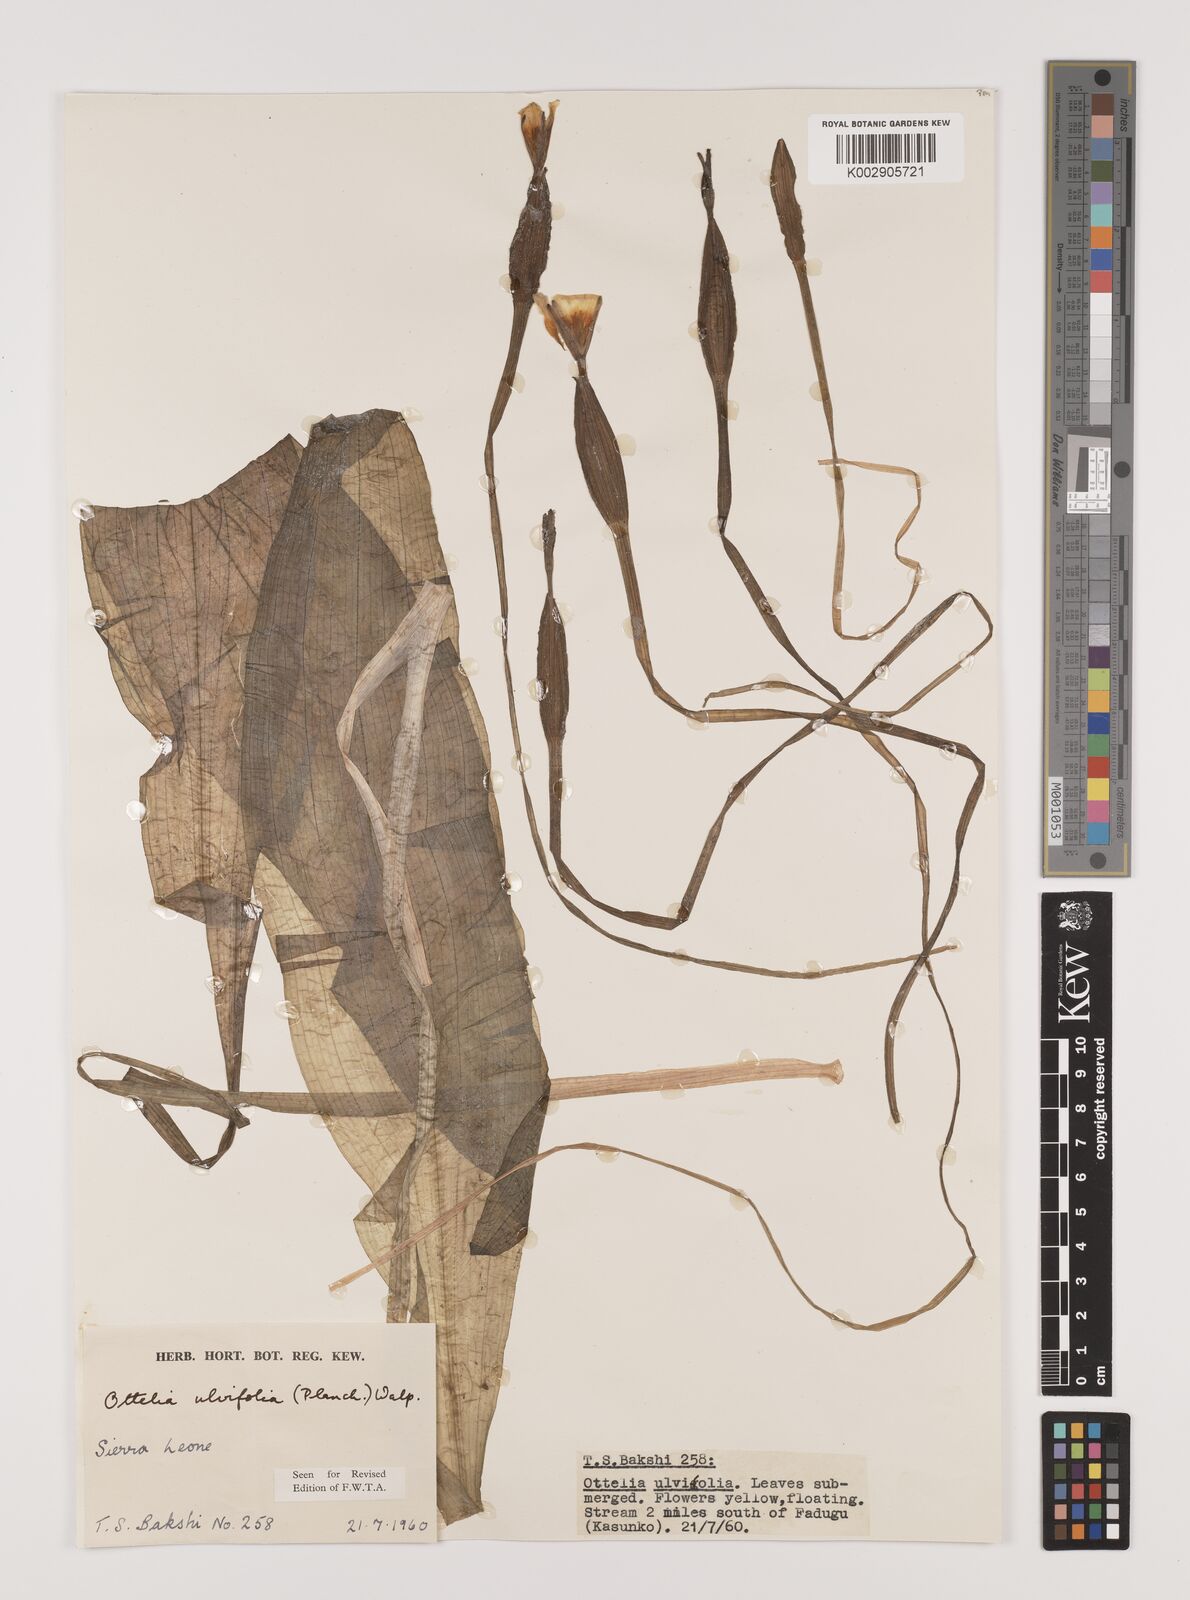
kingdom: Plantae
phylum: Tracheophyta
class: Liliopsida
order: Alismatales
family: Hydrocharitaceae
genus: Ottelia
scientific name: Ottelia ulvifolia
